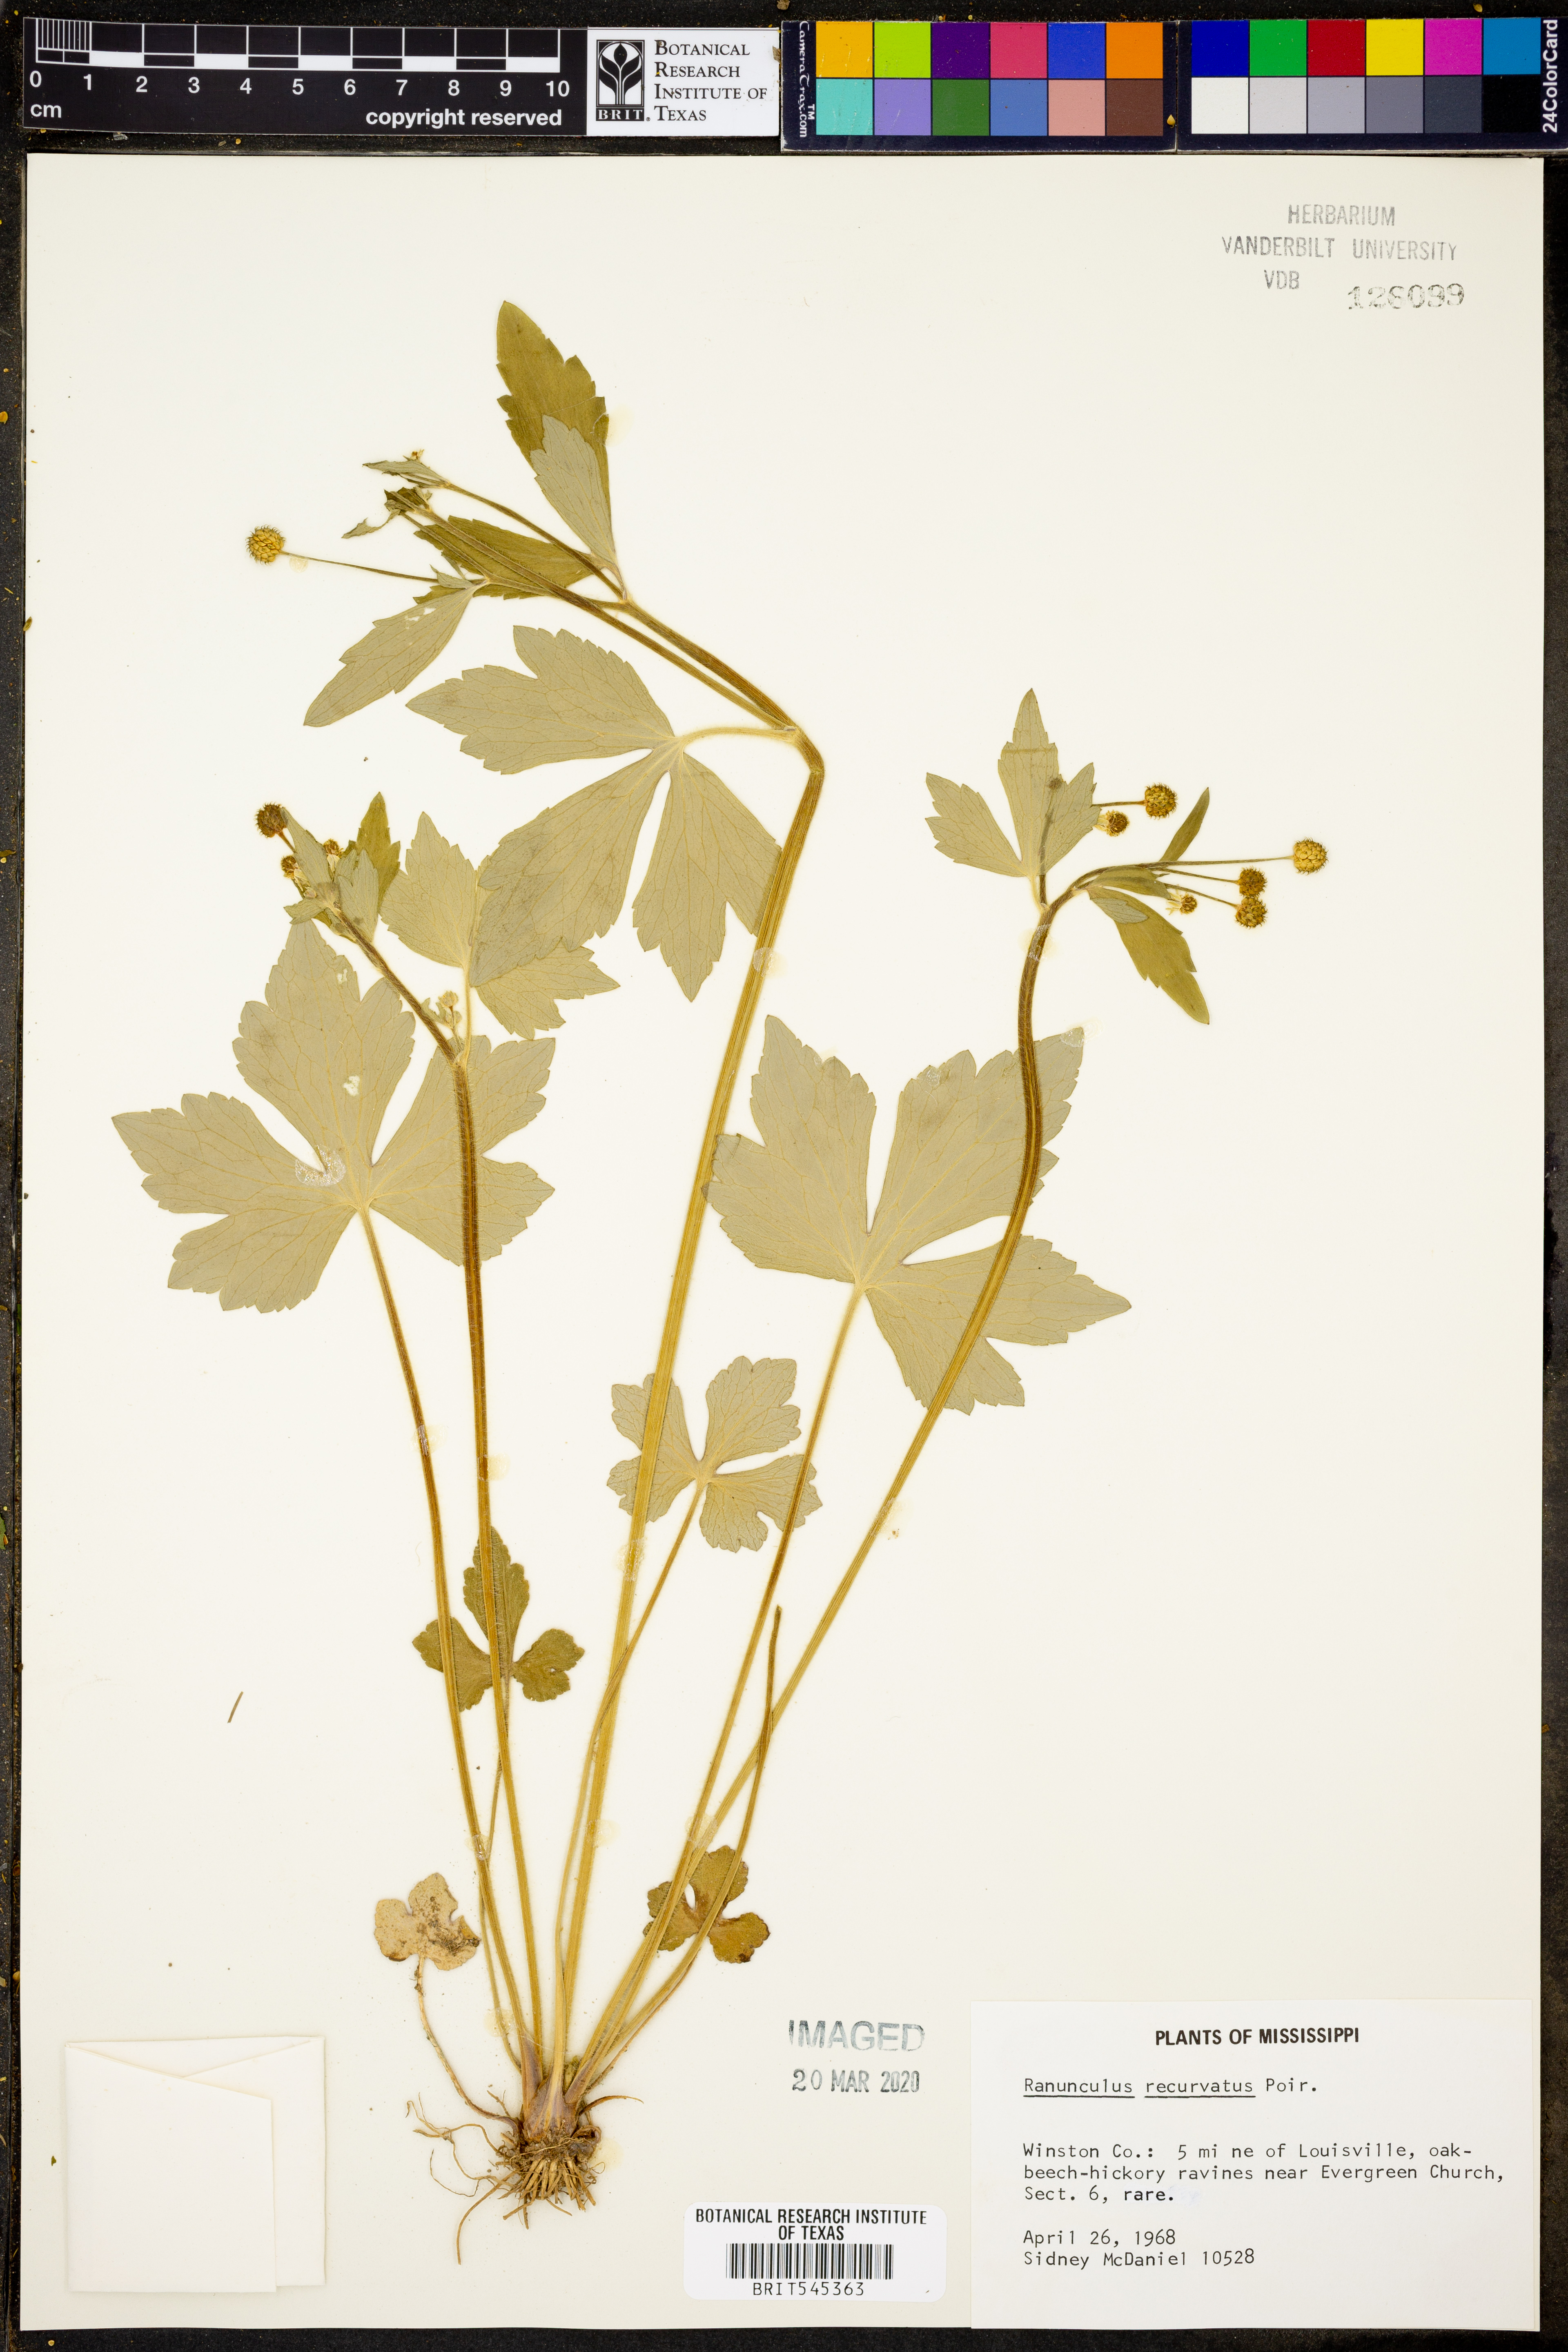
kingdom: Plantae
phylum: Tracheophyta
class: Magnoliopsida
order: Ranunculales
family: Ranunculaceae
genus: Ranunculus
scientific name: Ranunculus recurvatus
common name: Blisterwort
